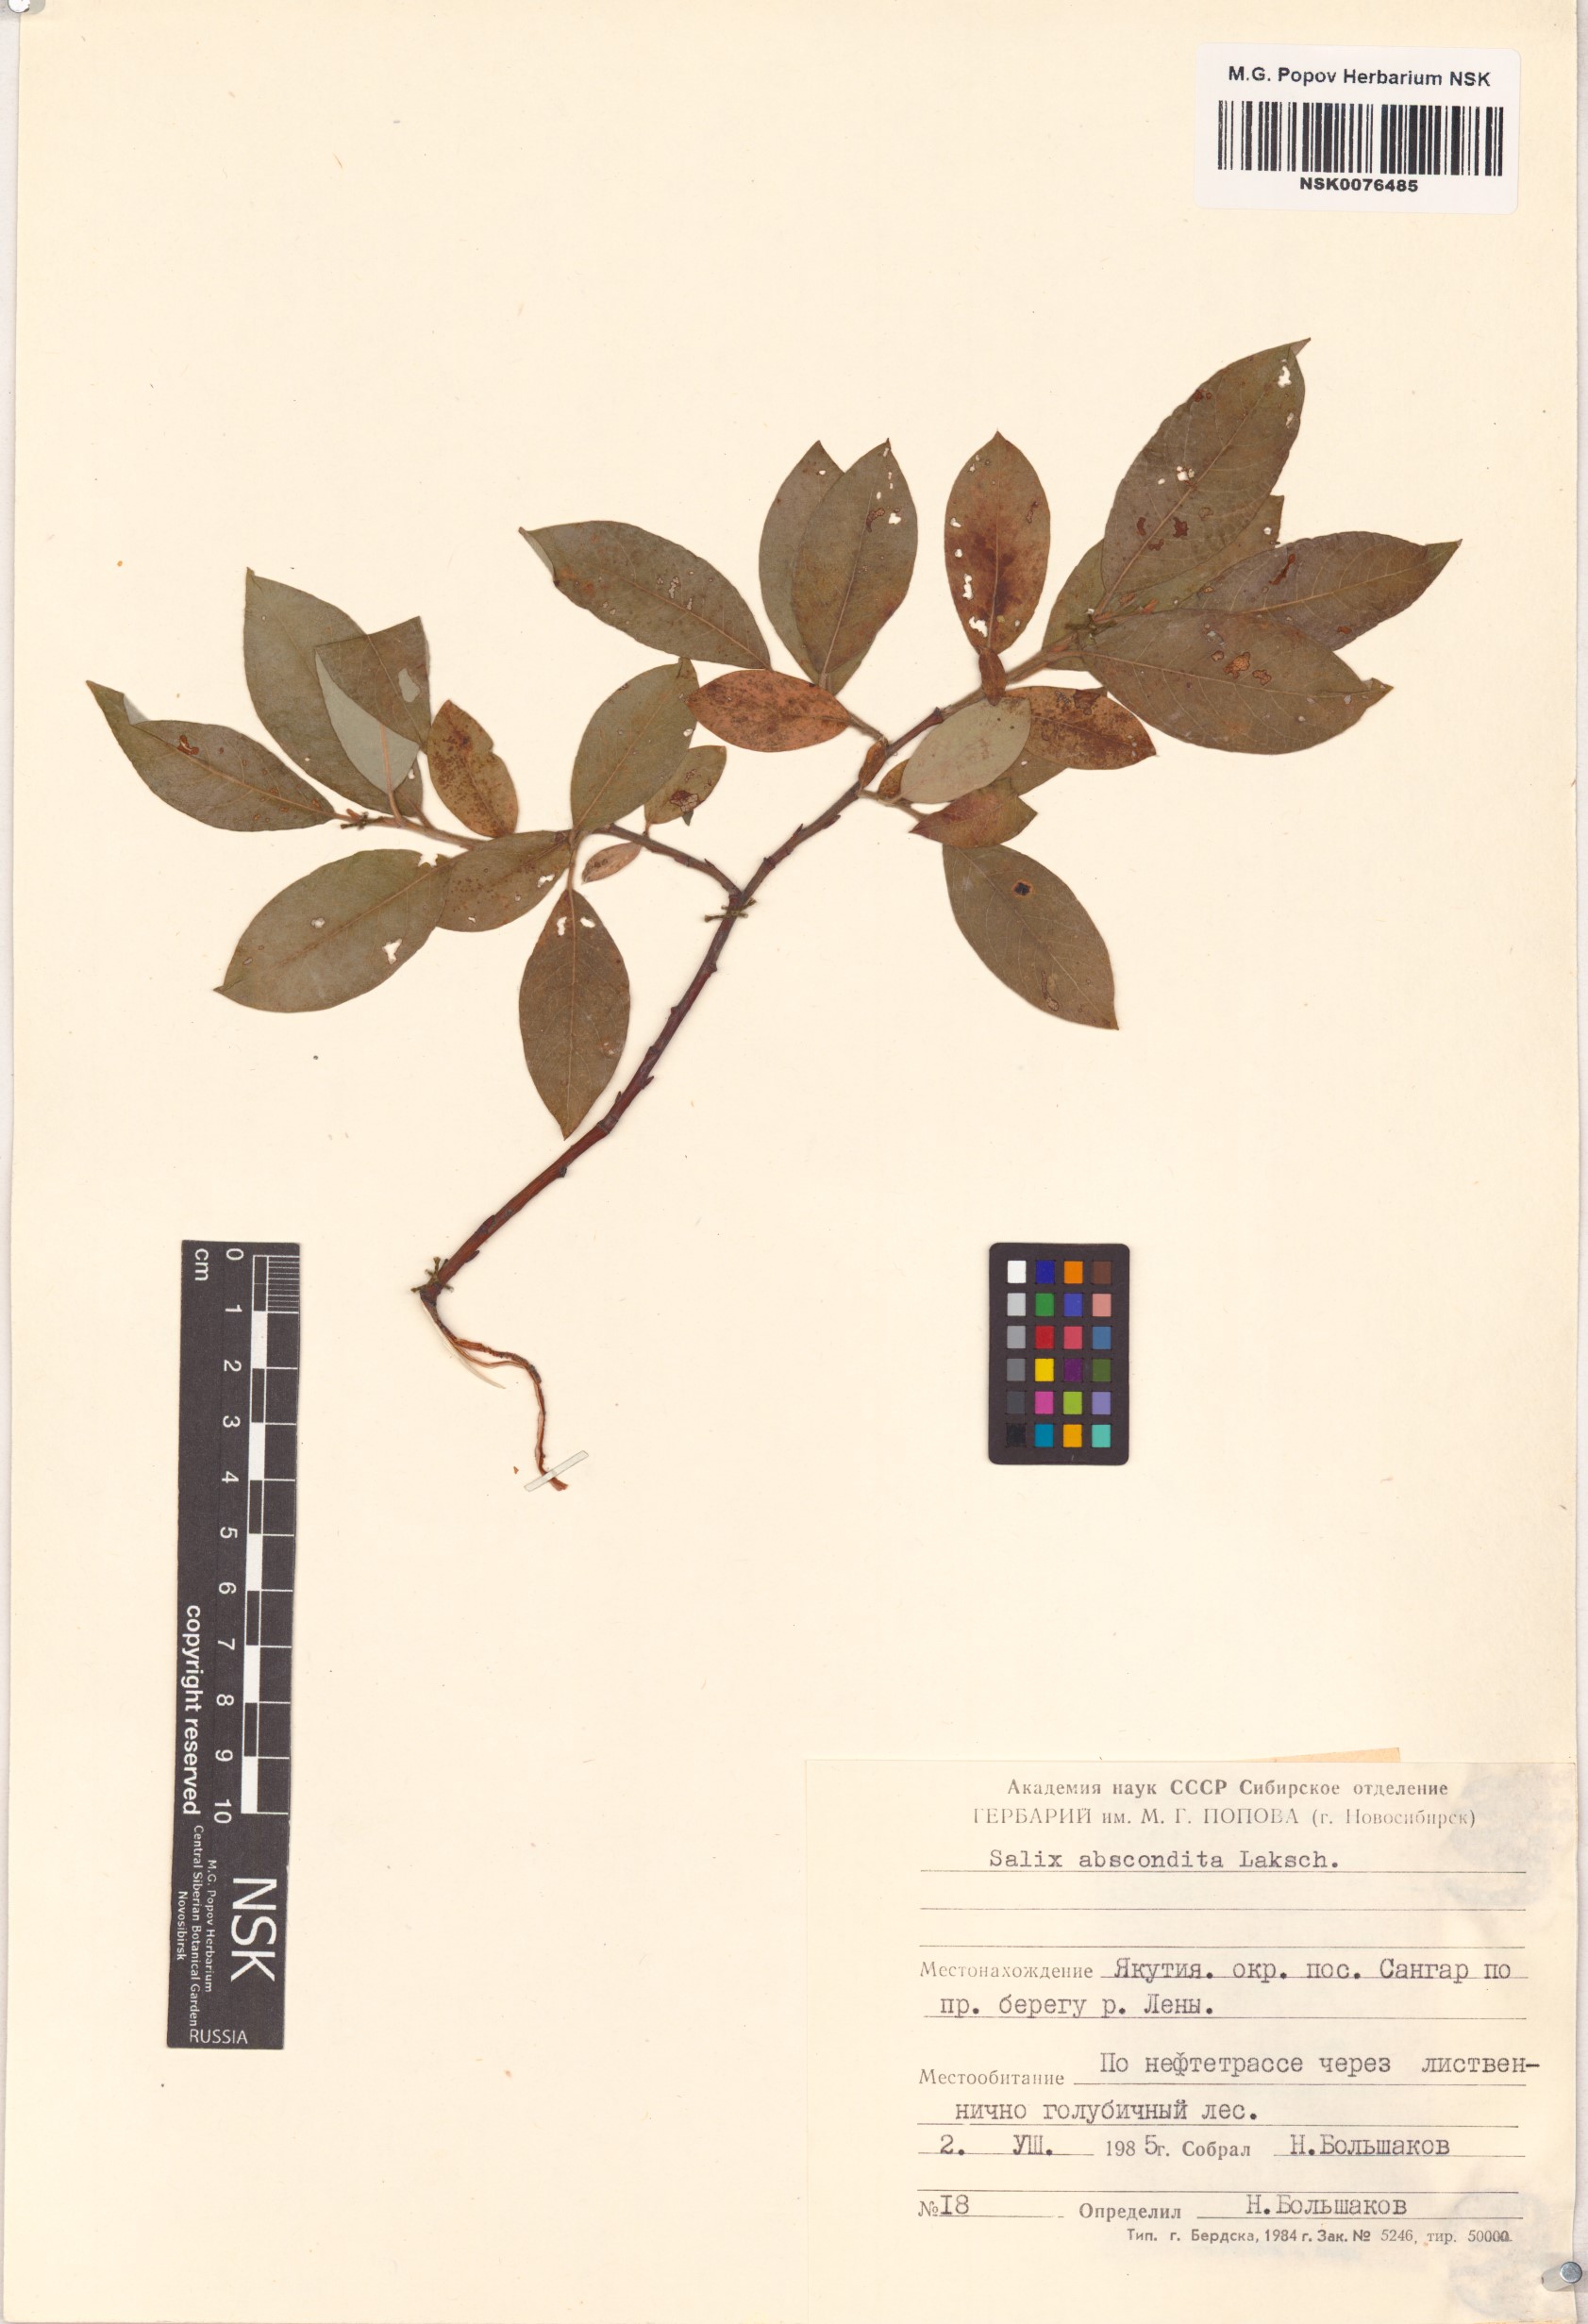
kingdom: Plantae
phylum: Tracheophyta
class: Magnoliopsida
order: Malpighiales
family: Salicaceae
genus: Salix
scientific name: Salix abscondita
